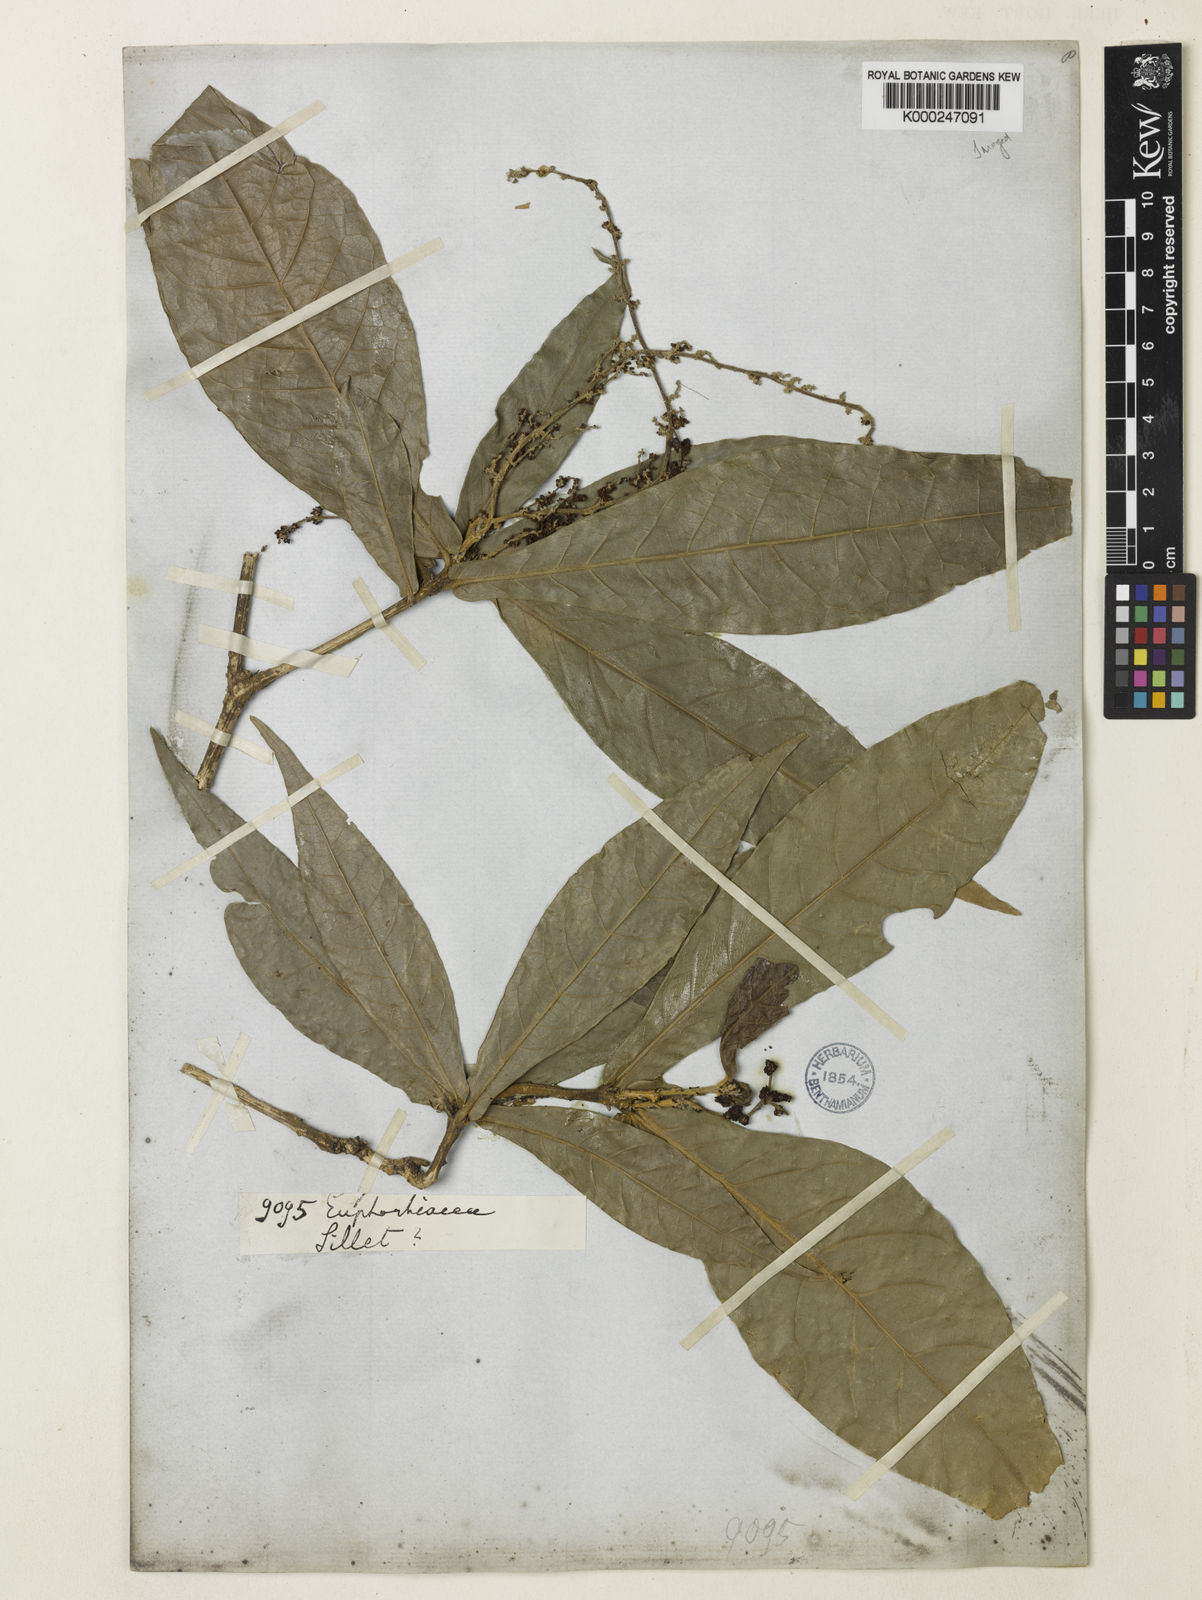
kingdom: Plantae
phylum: Tracheophyta
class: Magnoliopsida
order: Malpighiales
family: Euphorbiaceae
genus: Epiprinus
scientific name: Epiprinus siletianus
